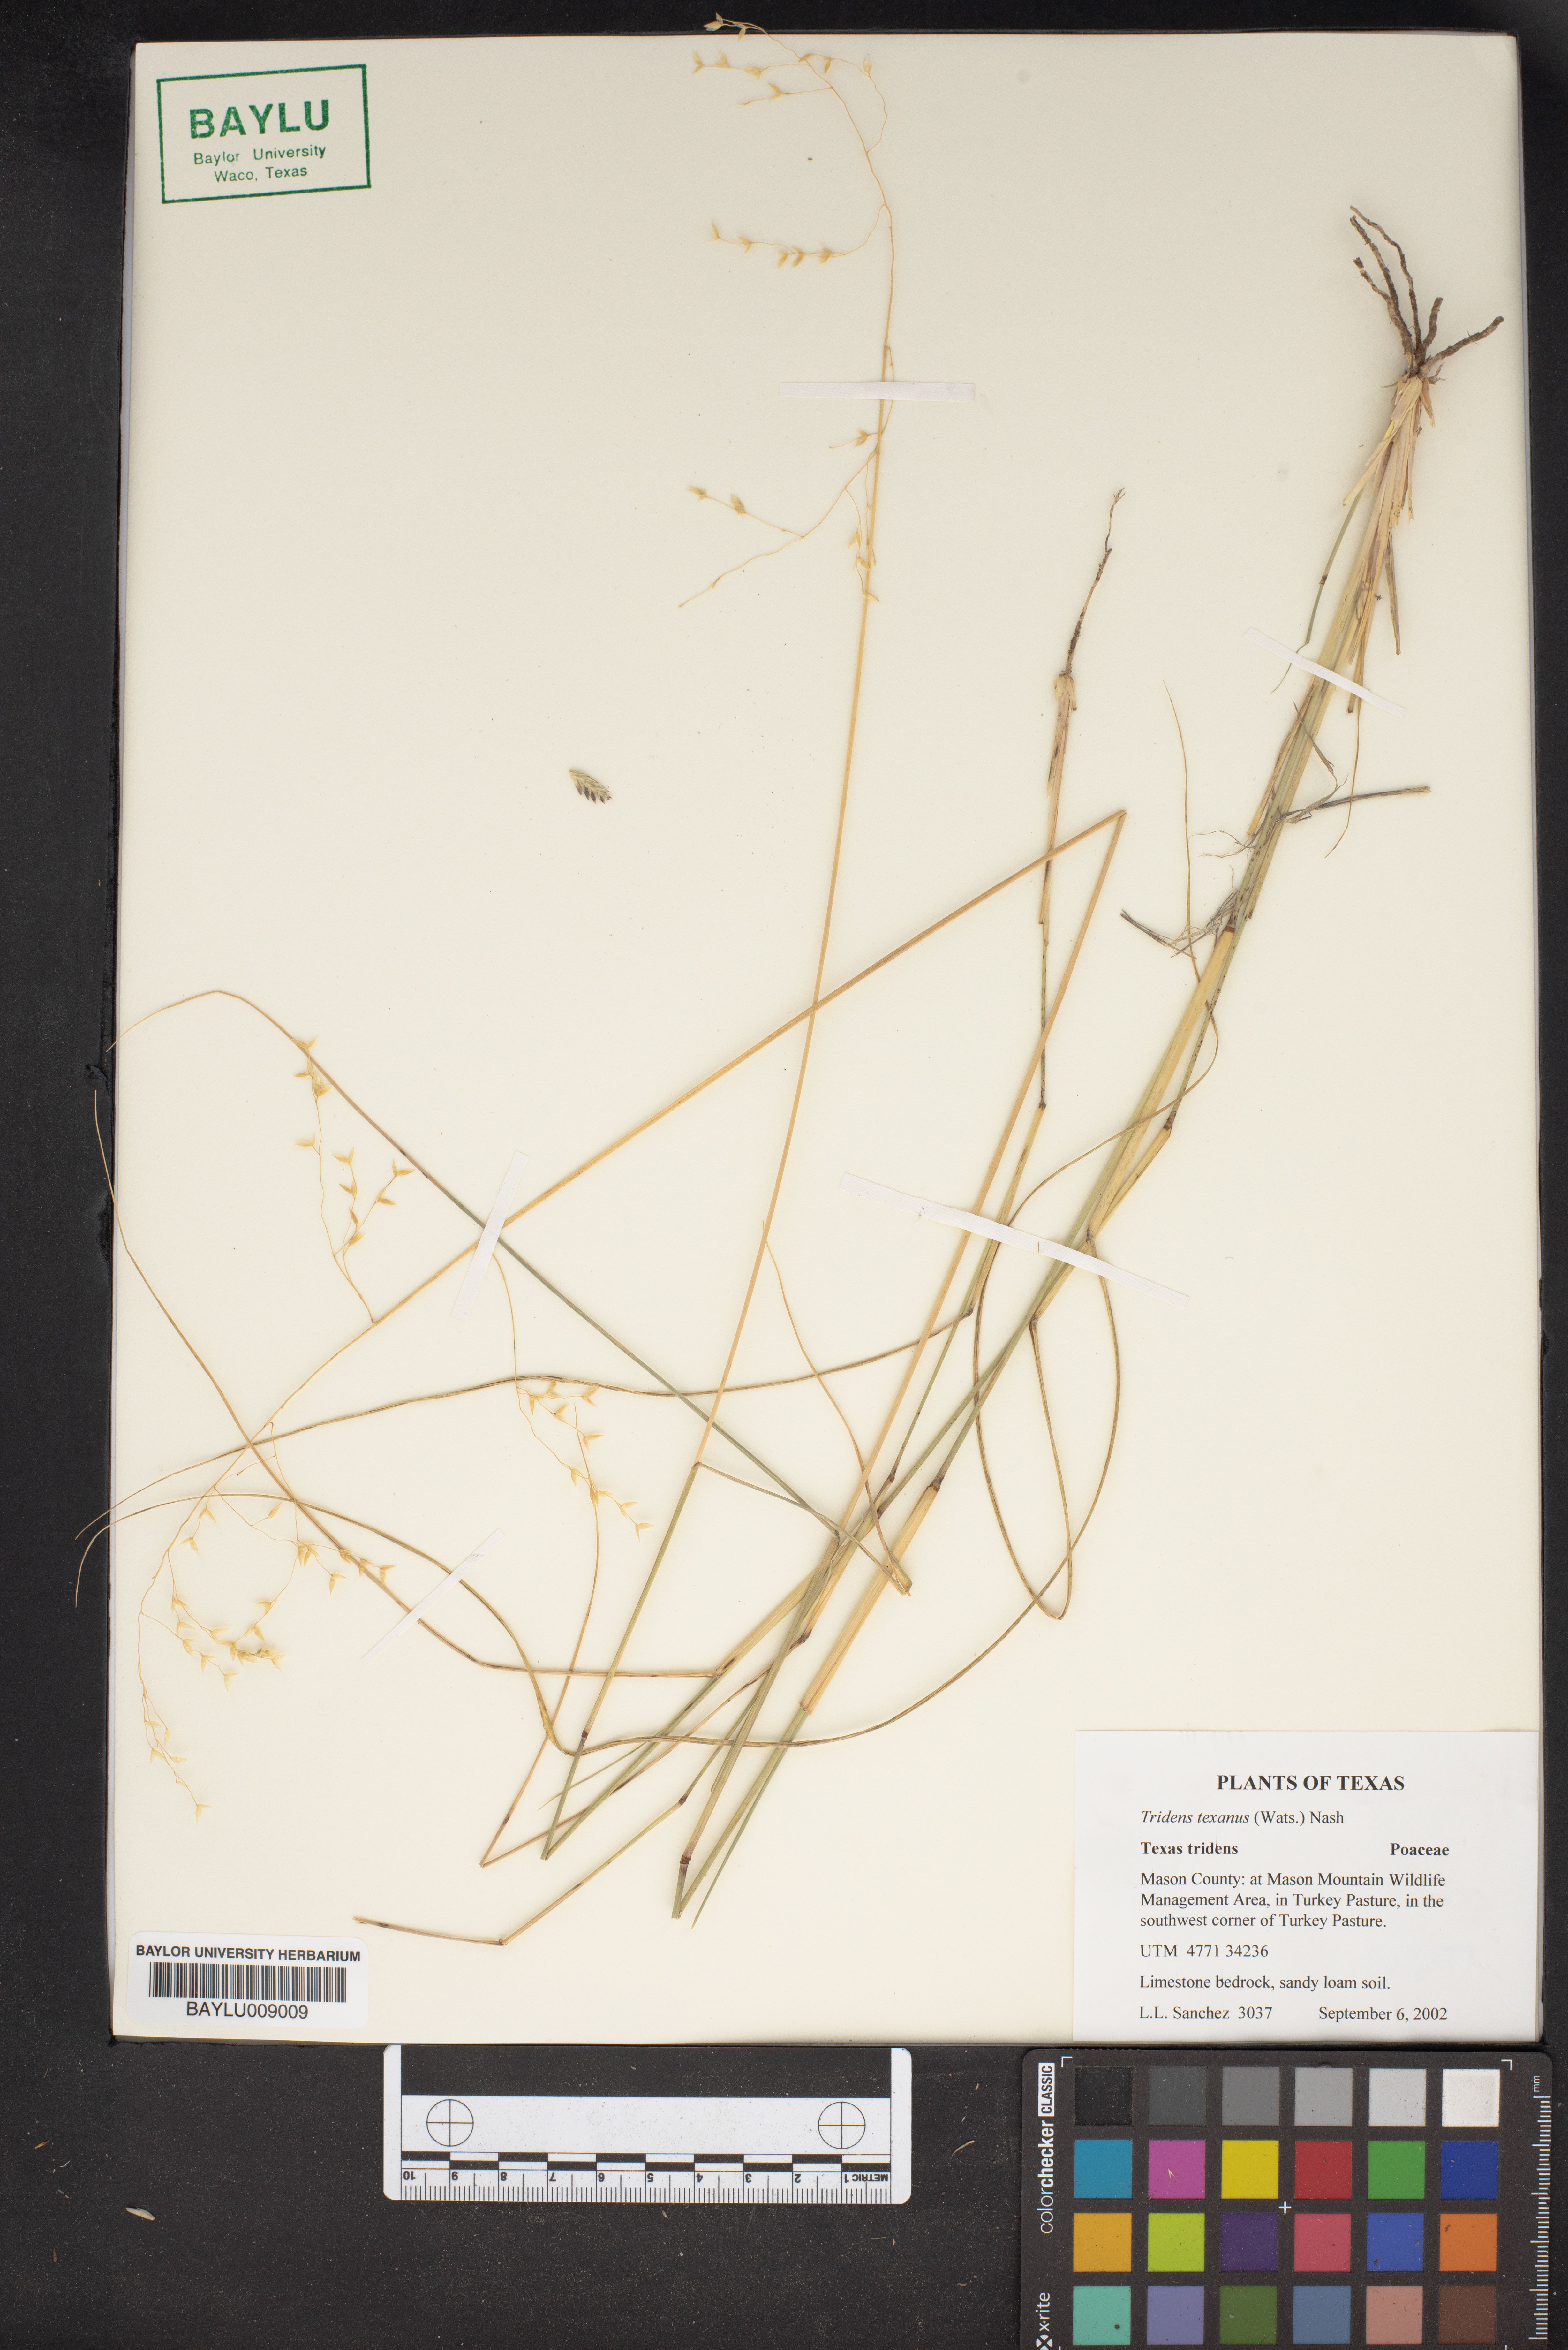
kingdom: Plantae
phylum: Tracheophyta
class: Liliopsida
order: Poales
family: Poaceae
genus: Tridens
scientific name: Tridens texanus
